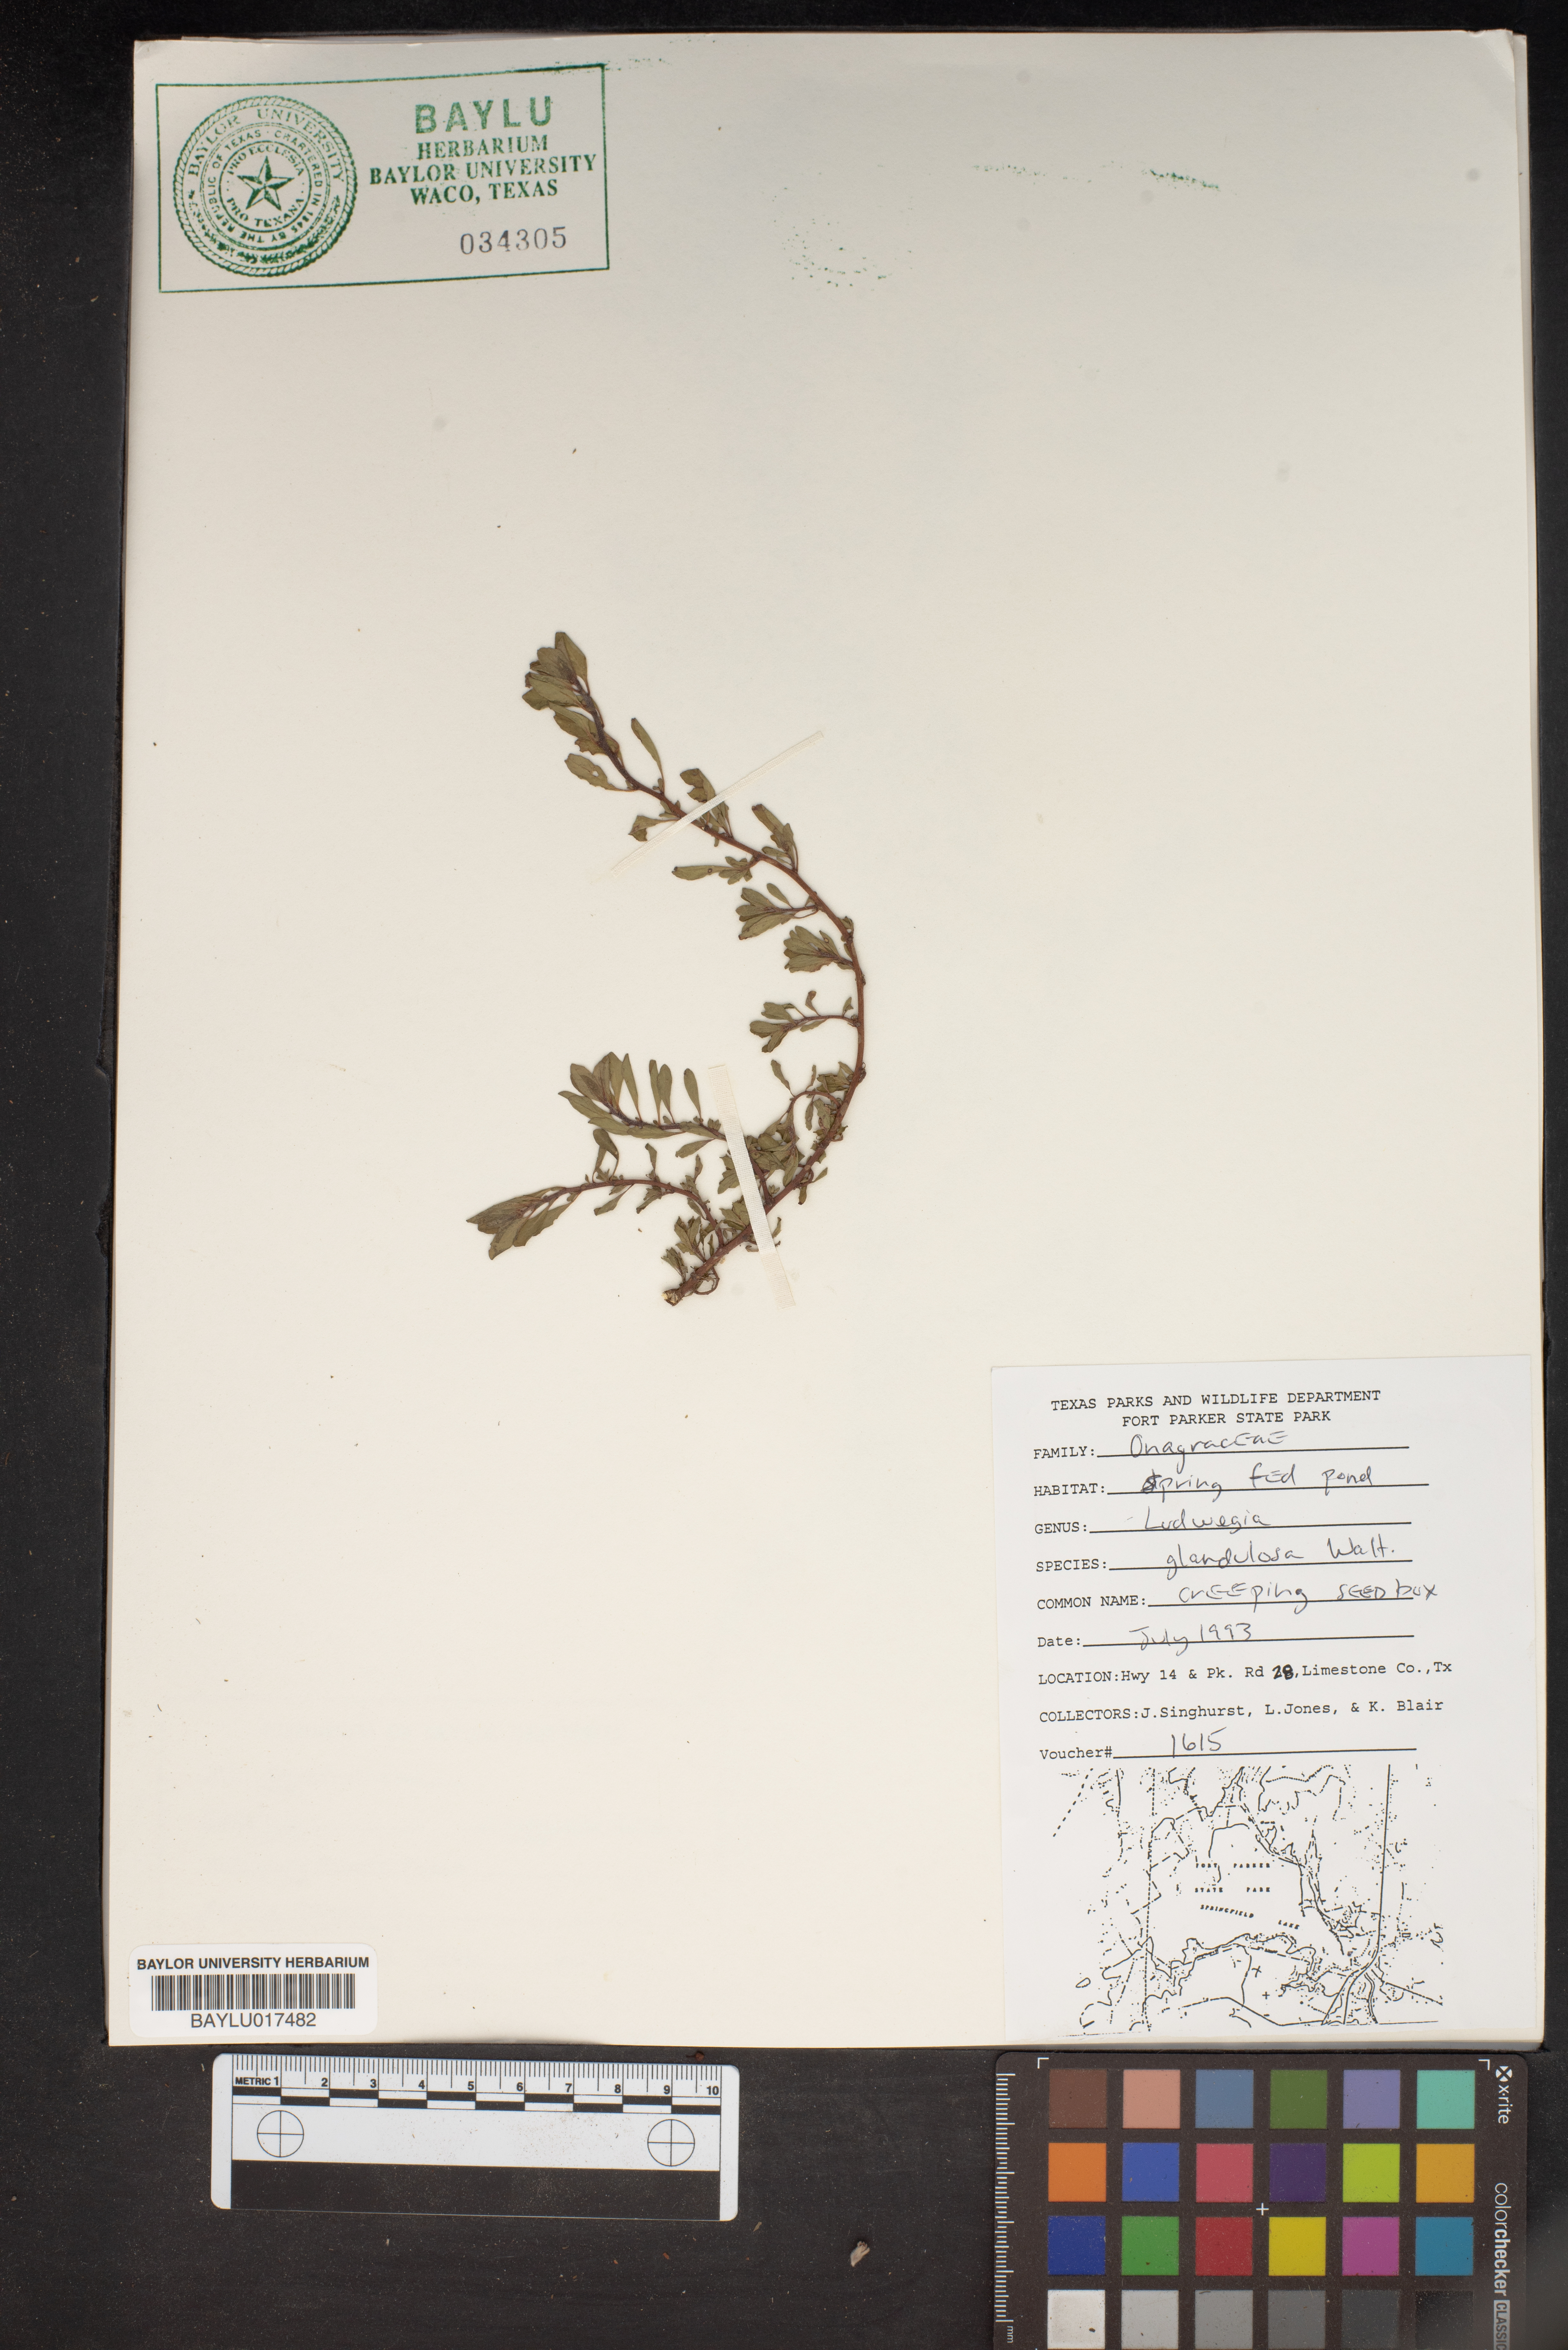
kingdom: Plantae
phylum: Tracheophyta
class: Magnoliopsida
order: Myrtales
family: Onagraceae
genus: Ludwigia
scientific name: Ludwigia glandulosa
